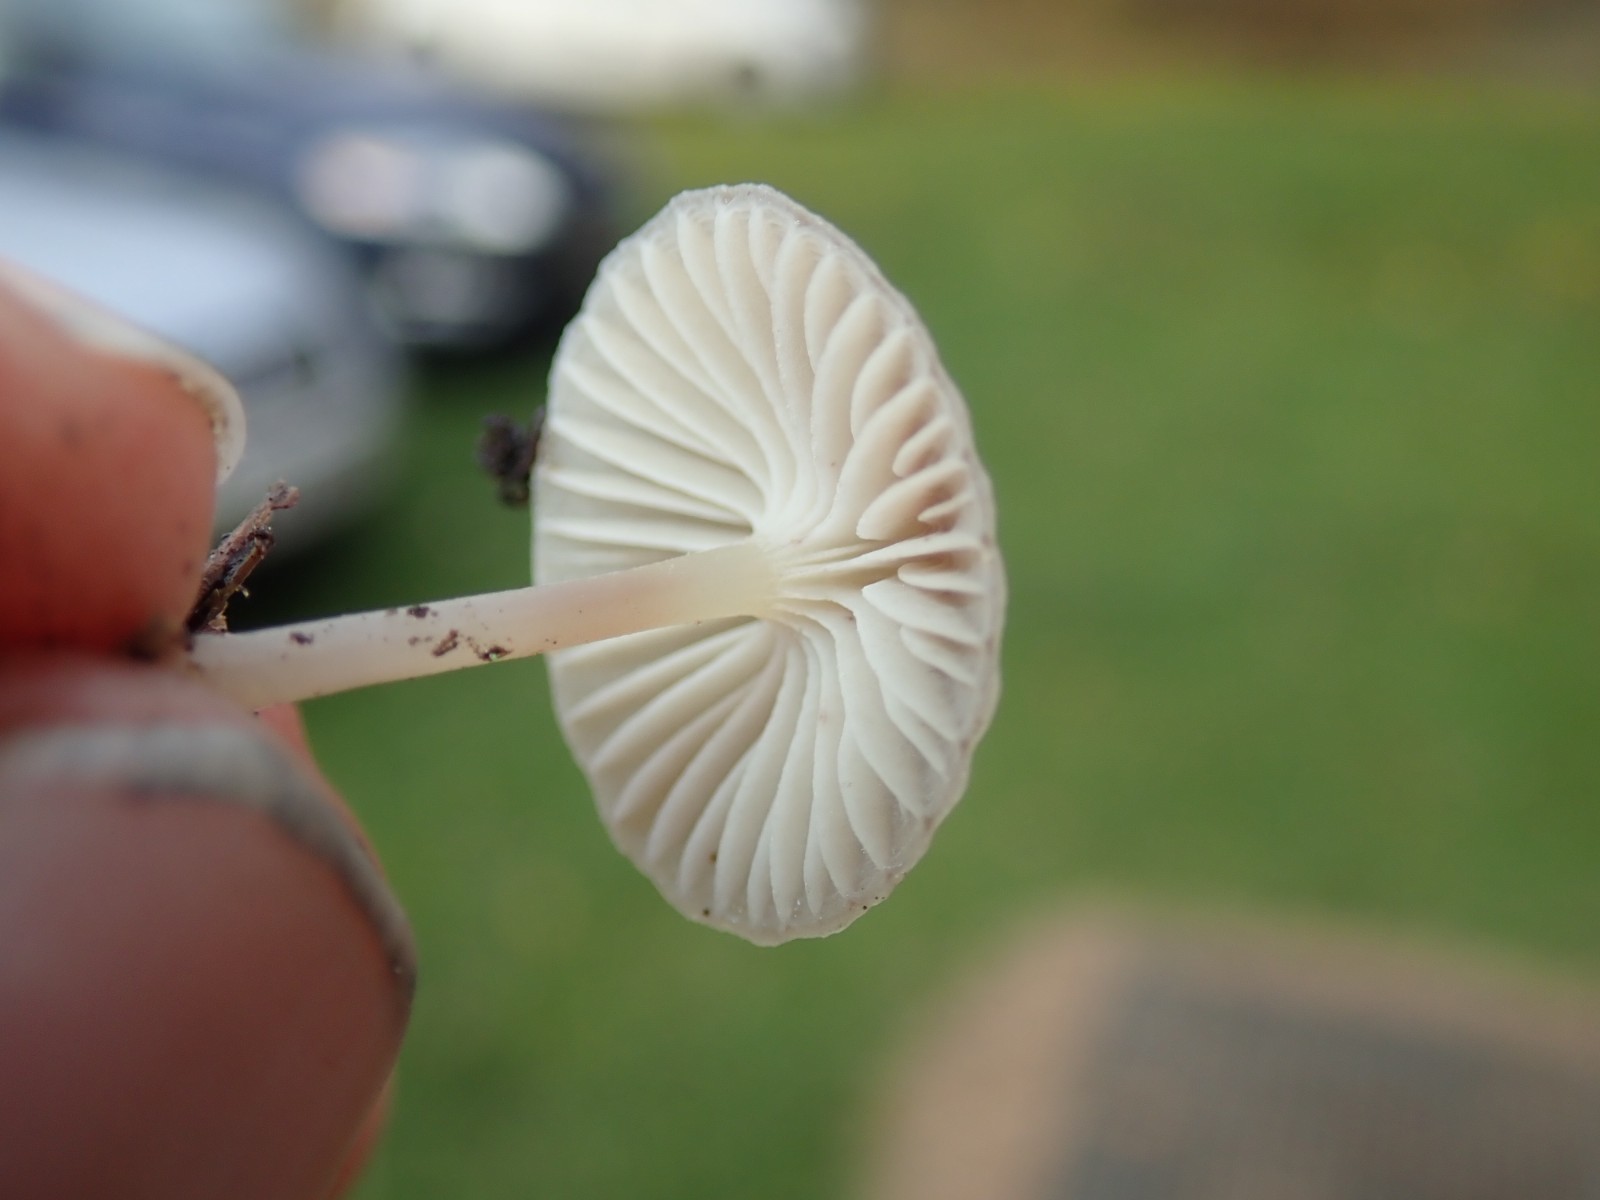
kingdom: Fungi
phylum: Basidiomycota
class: Agaricomycetes
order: Agaricales
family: Mycenaceae
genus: Mycena
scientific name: Mycena epipterygia
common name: gulstokket huesvamp
